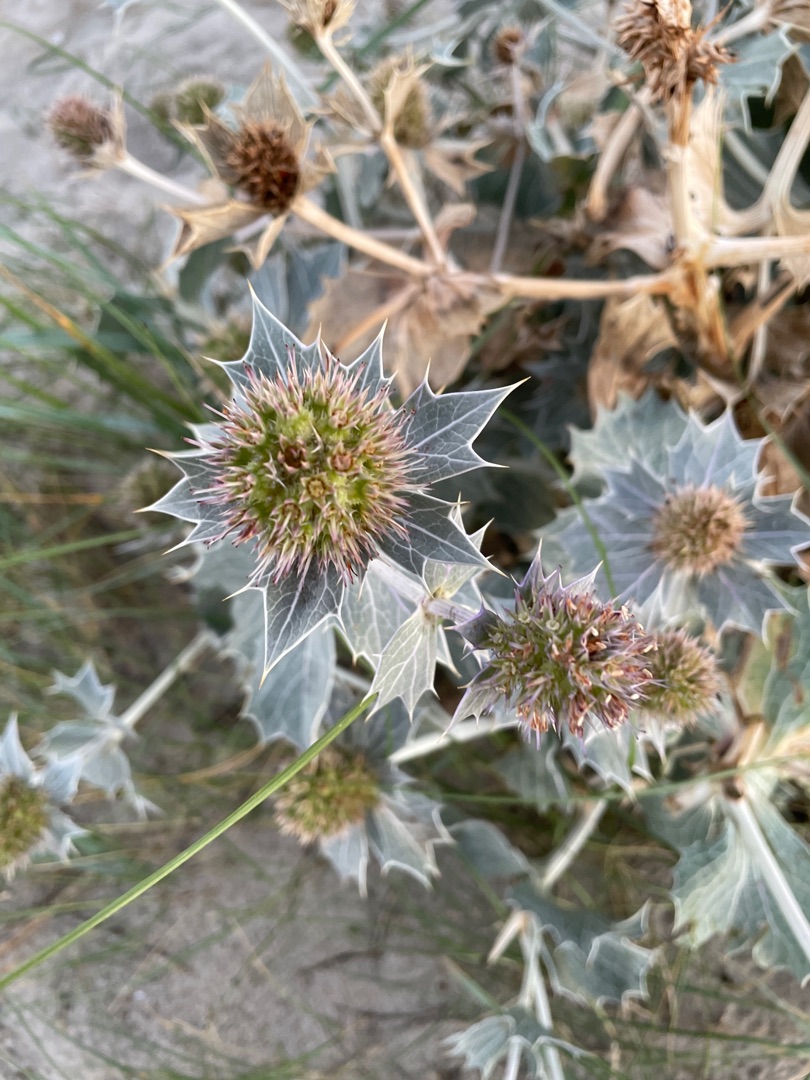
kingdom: Plantae
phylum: Tracheophyta
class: Magnoliopsida
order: Apiales
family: Apiaceae
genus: Eryngium
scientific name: Eryngium maritimum
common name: Strand-mandstro
